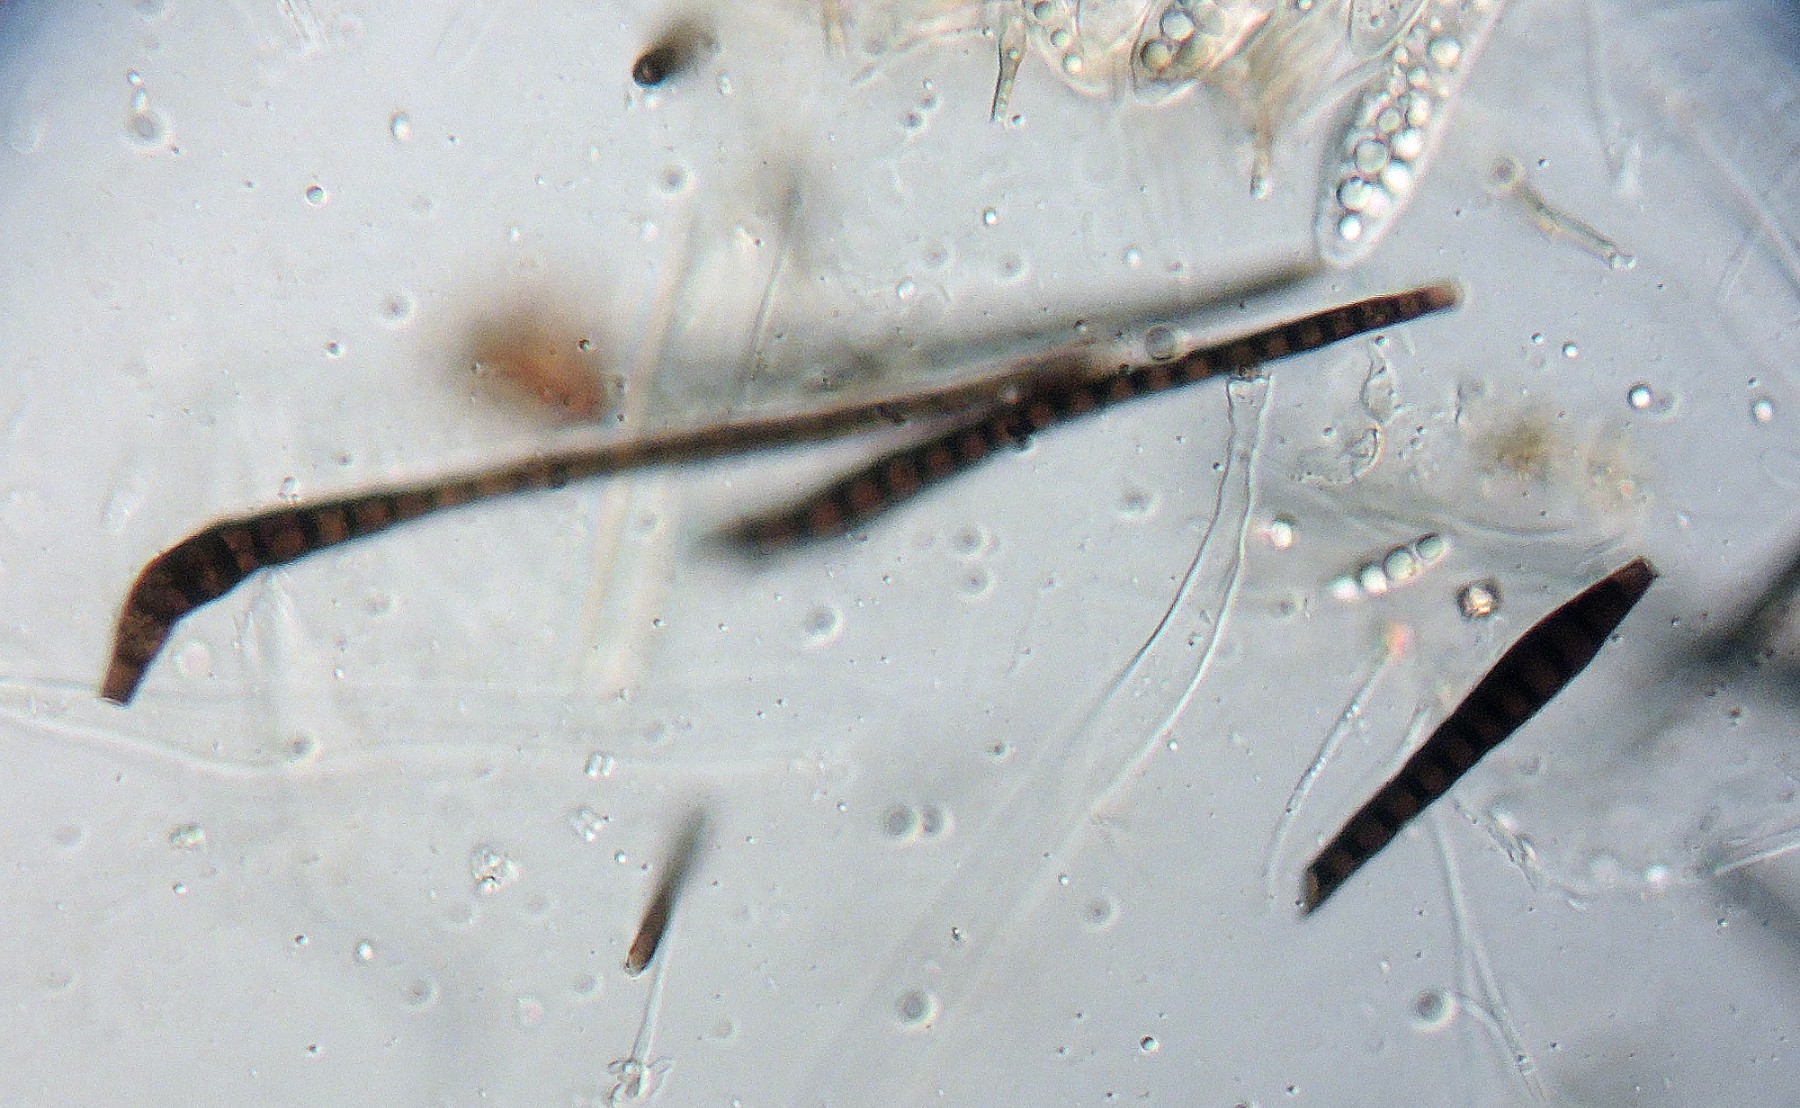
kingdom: Fungi
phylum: Ascomycota
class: Dothideomycetes
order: Pleosporales
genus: Sporidesmium
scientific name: Sporidesmium eupatoriicola
